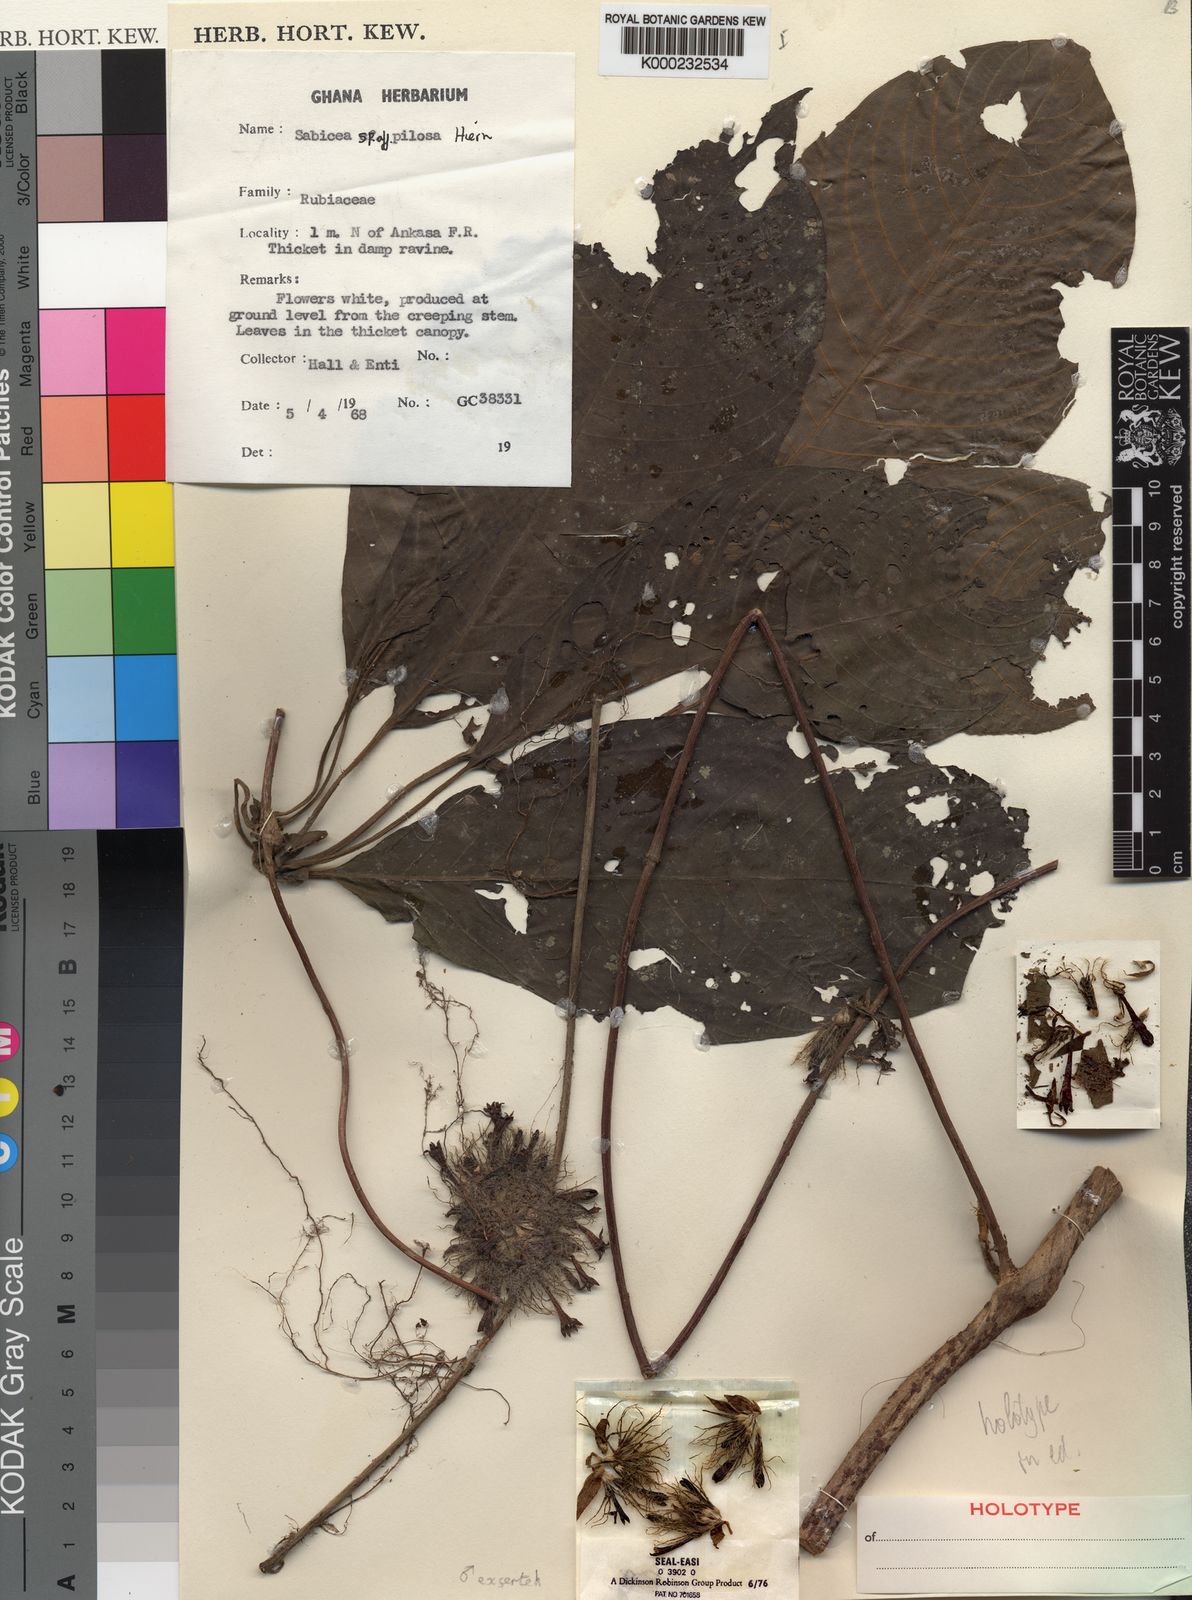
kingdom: Plantae
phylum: Tracheophyta
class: Magnoliopsida
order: Gentianales
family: Rubiaceae
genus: Sabicea
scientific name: Sabicea
